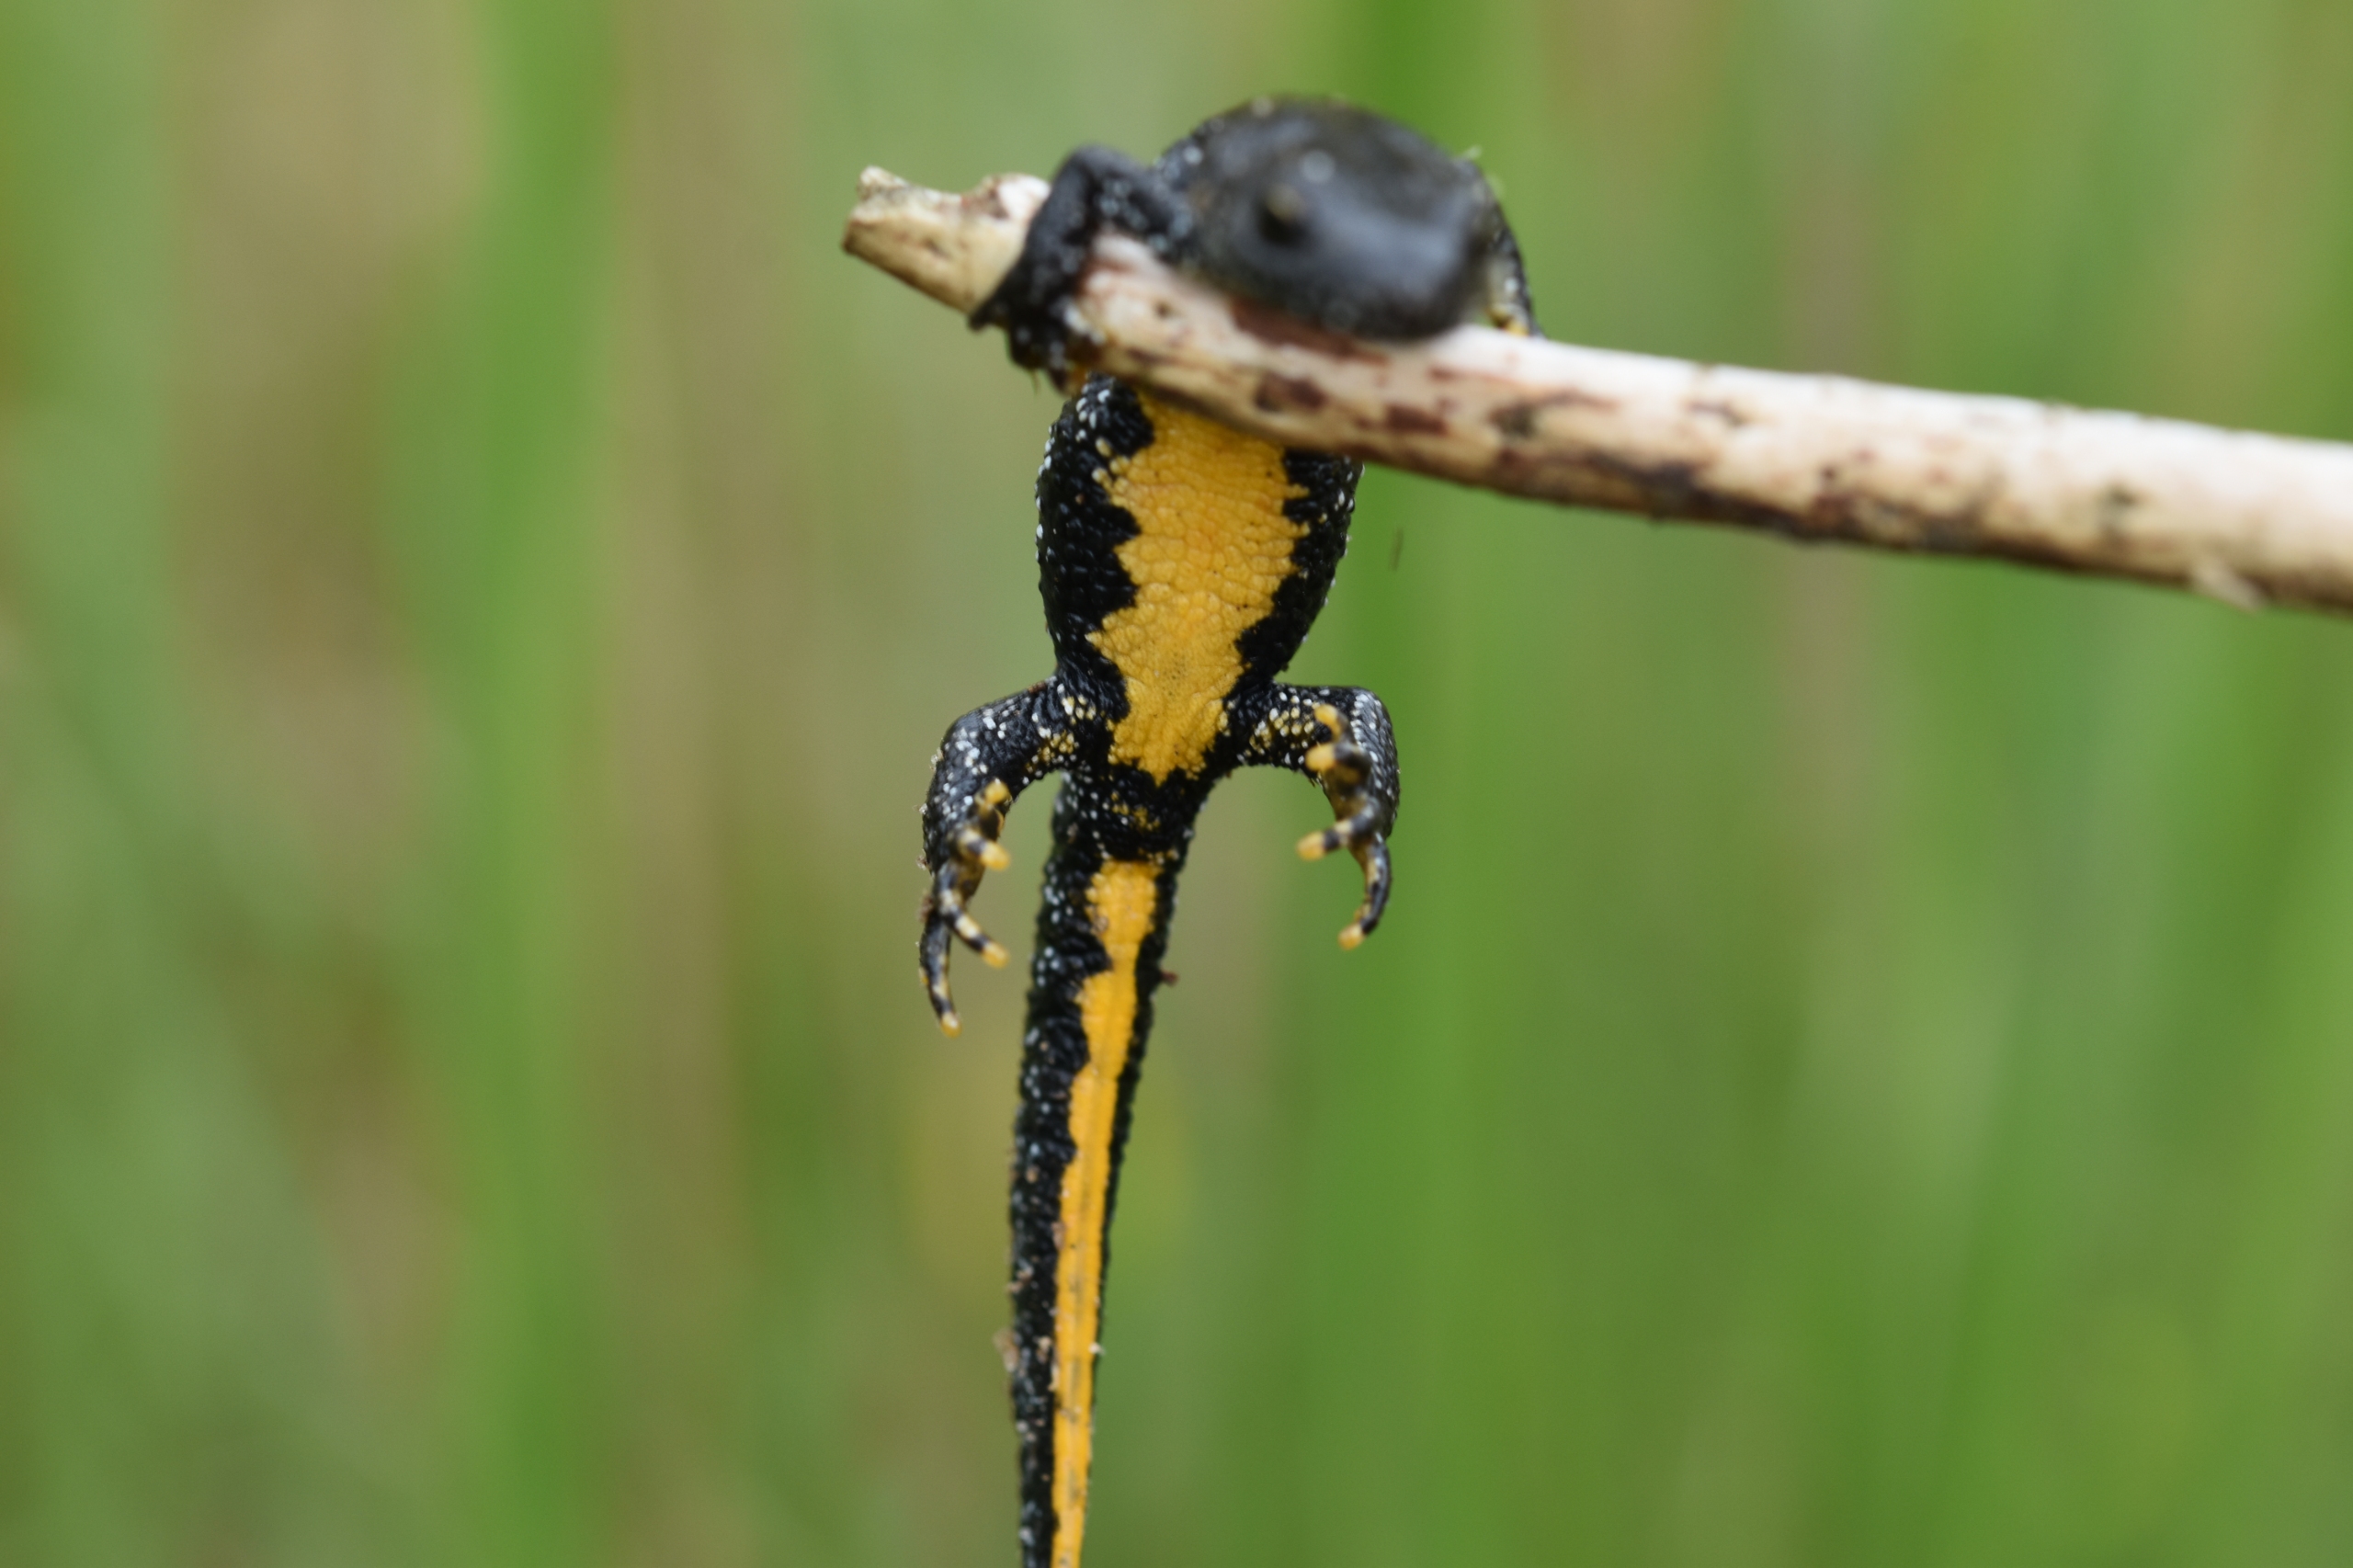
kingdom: Animalia
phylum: Chordata
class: Amphibia
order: Caudata
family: Salamandridae
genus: Triturus
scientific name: Triturus cristatus
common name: Stor vandsalamander
